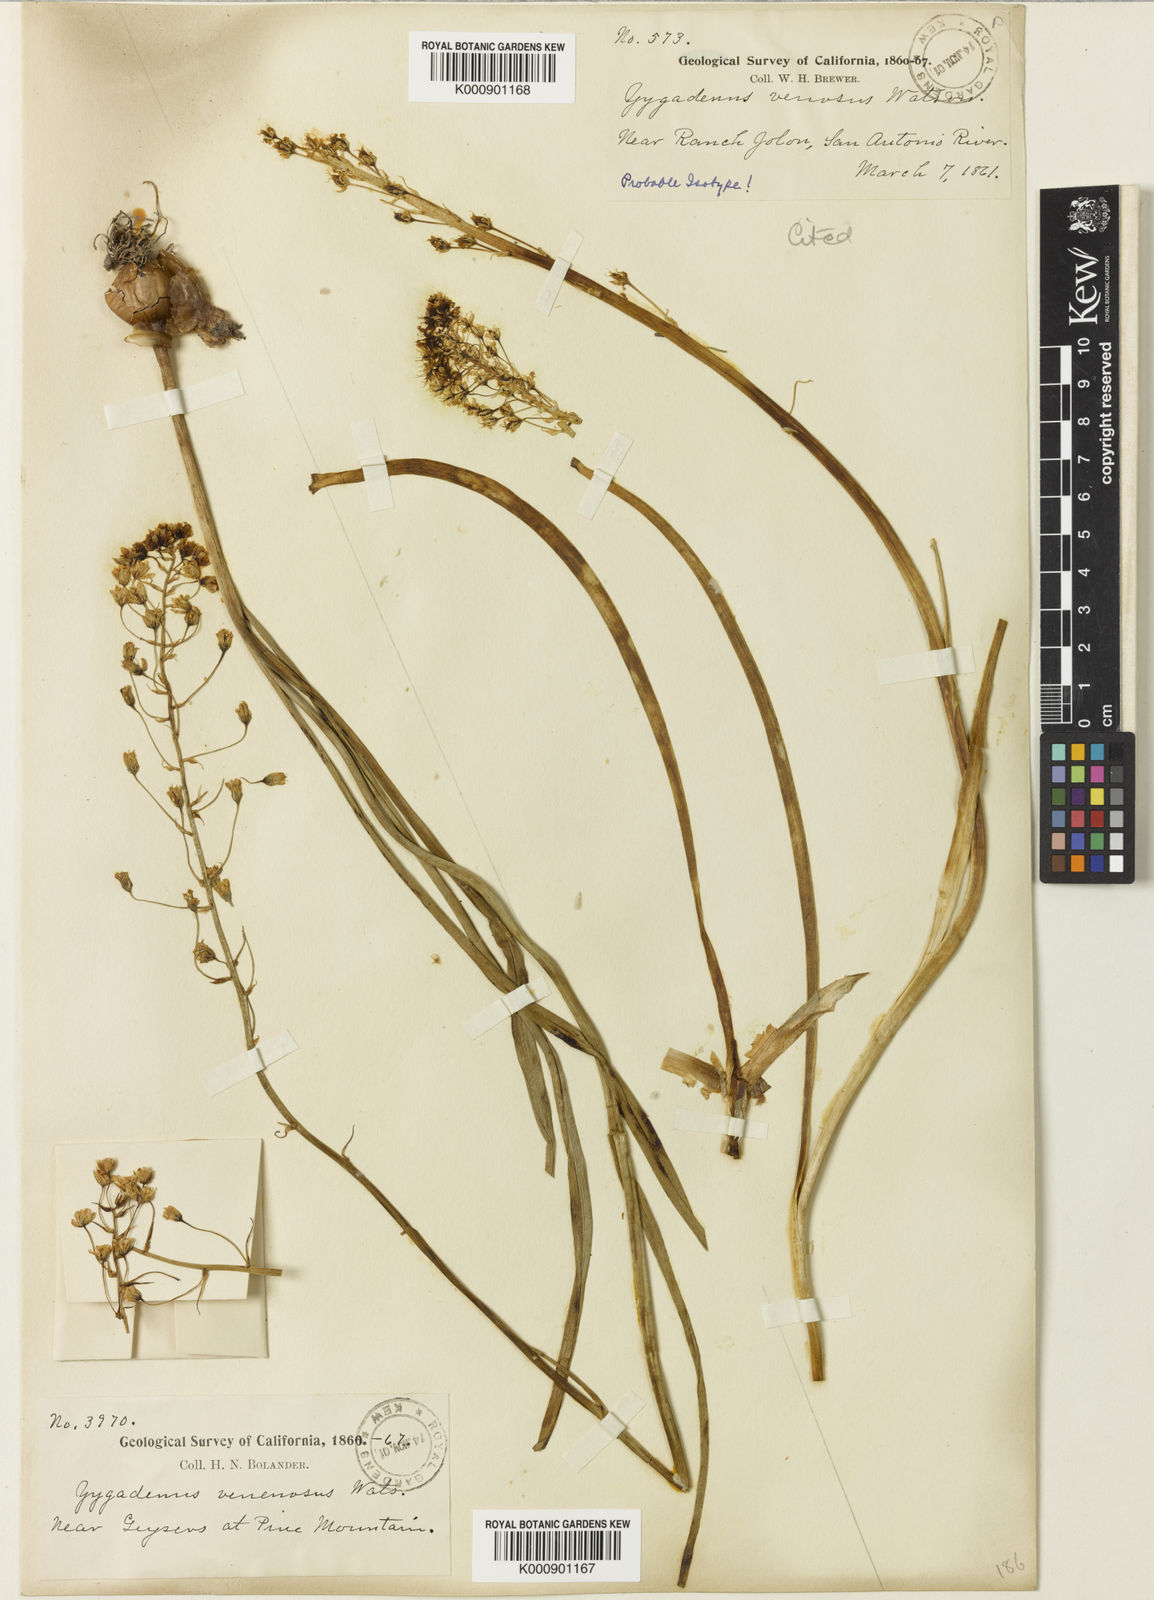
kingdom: Plantae
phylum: Tracheophyta
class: Liliopsida
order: Liliales
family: Melanthiaceae
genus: Toxicoscordion
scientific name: Toxicoscordion venenosum
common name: Meadow death camas
